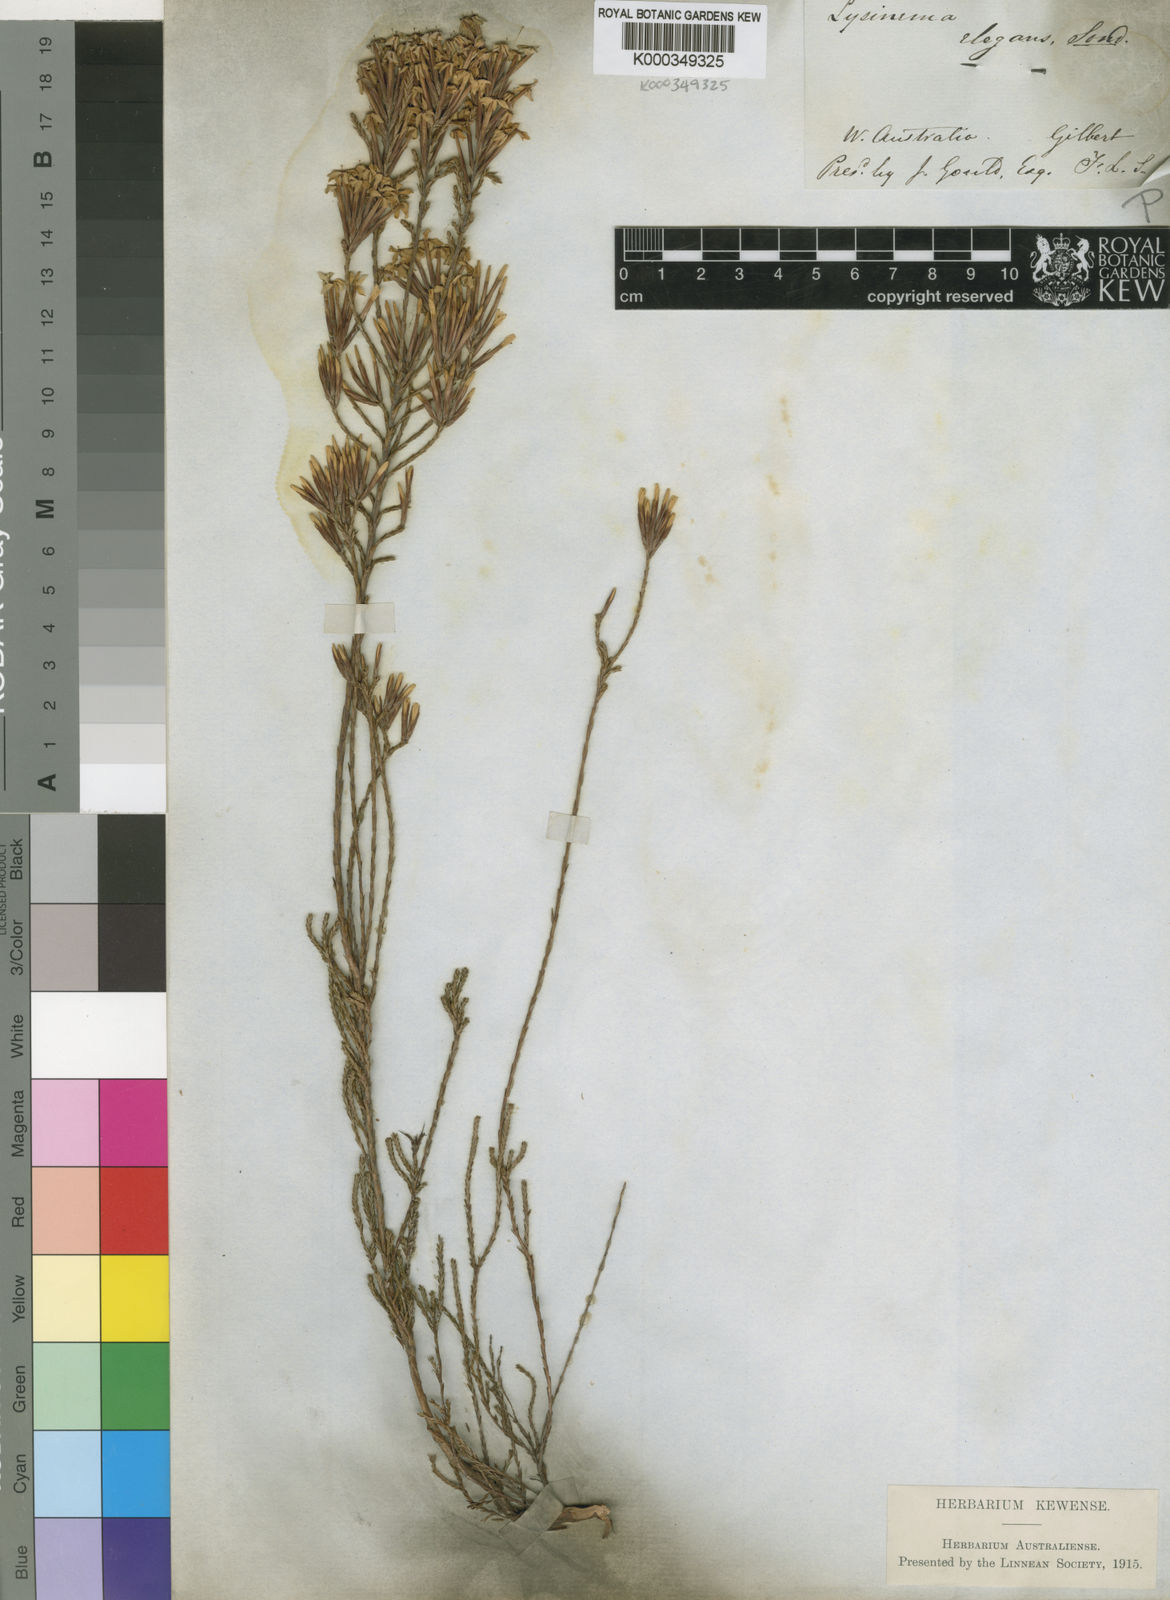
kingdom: Plantae
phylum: Tracheophyta
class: Magnoliopsida
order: Ericales
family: Ericaceae
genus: Lysinema
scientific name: Lysinema elegans
